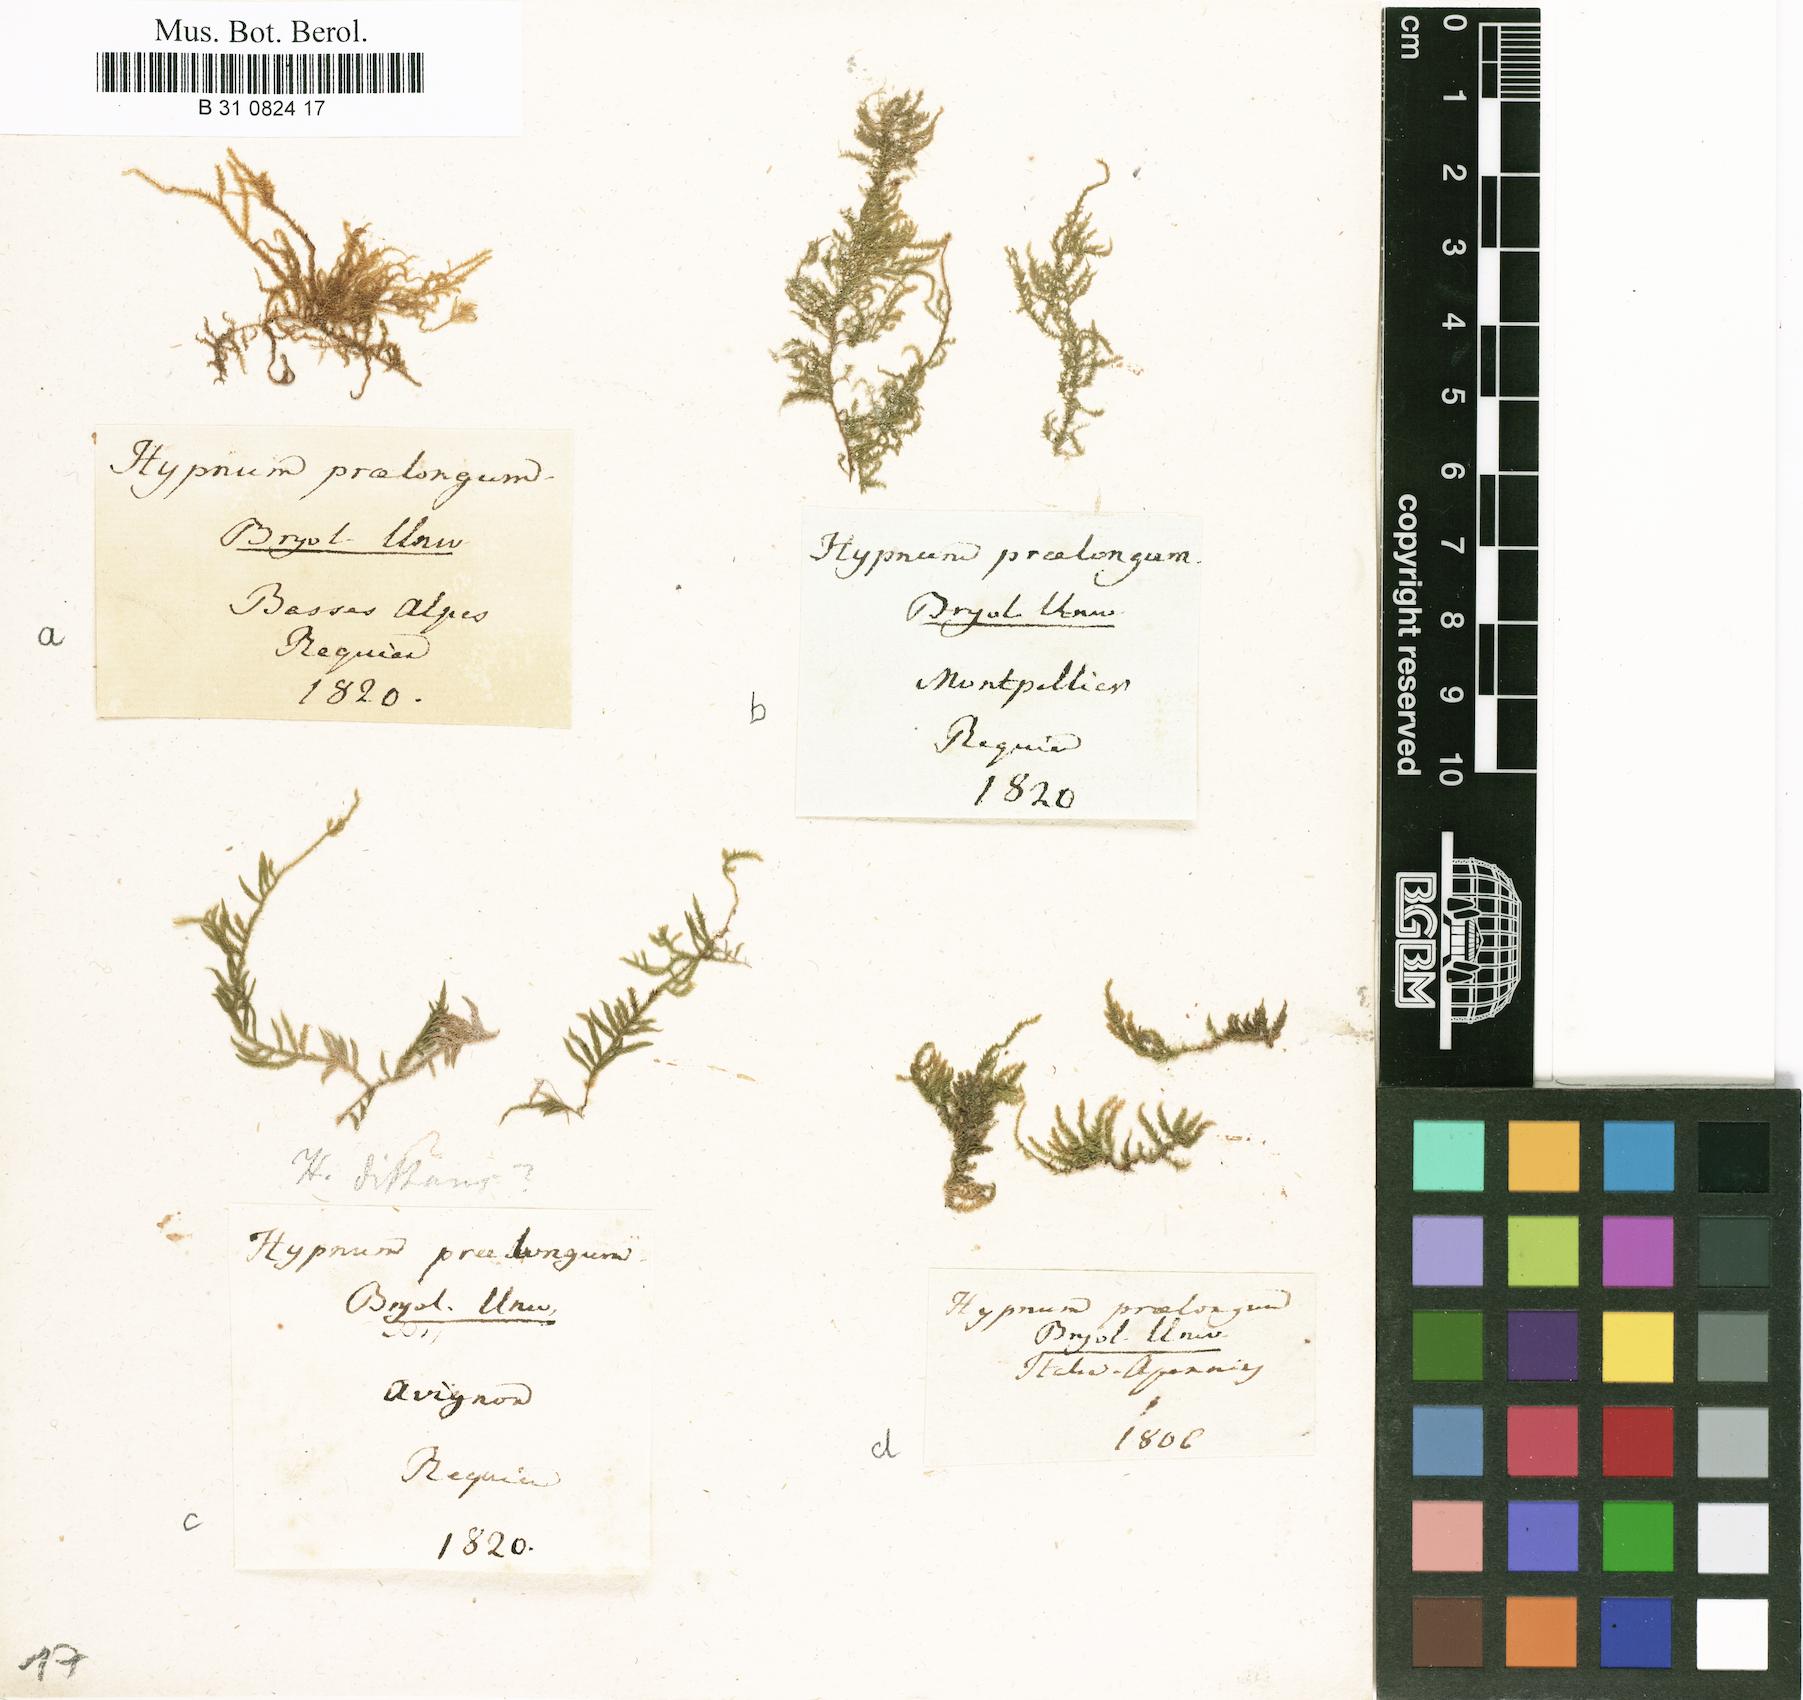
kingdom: Plantae
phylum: Bryophyta
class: Bryopsida
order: Hypnales
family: Brachytheciaceae
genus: Kindbergia
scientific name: Kindbergia praelonga
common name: Slender beaked moss
